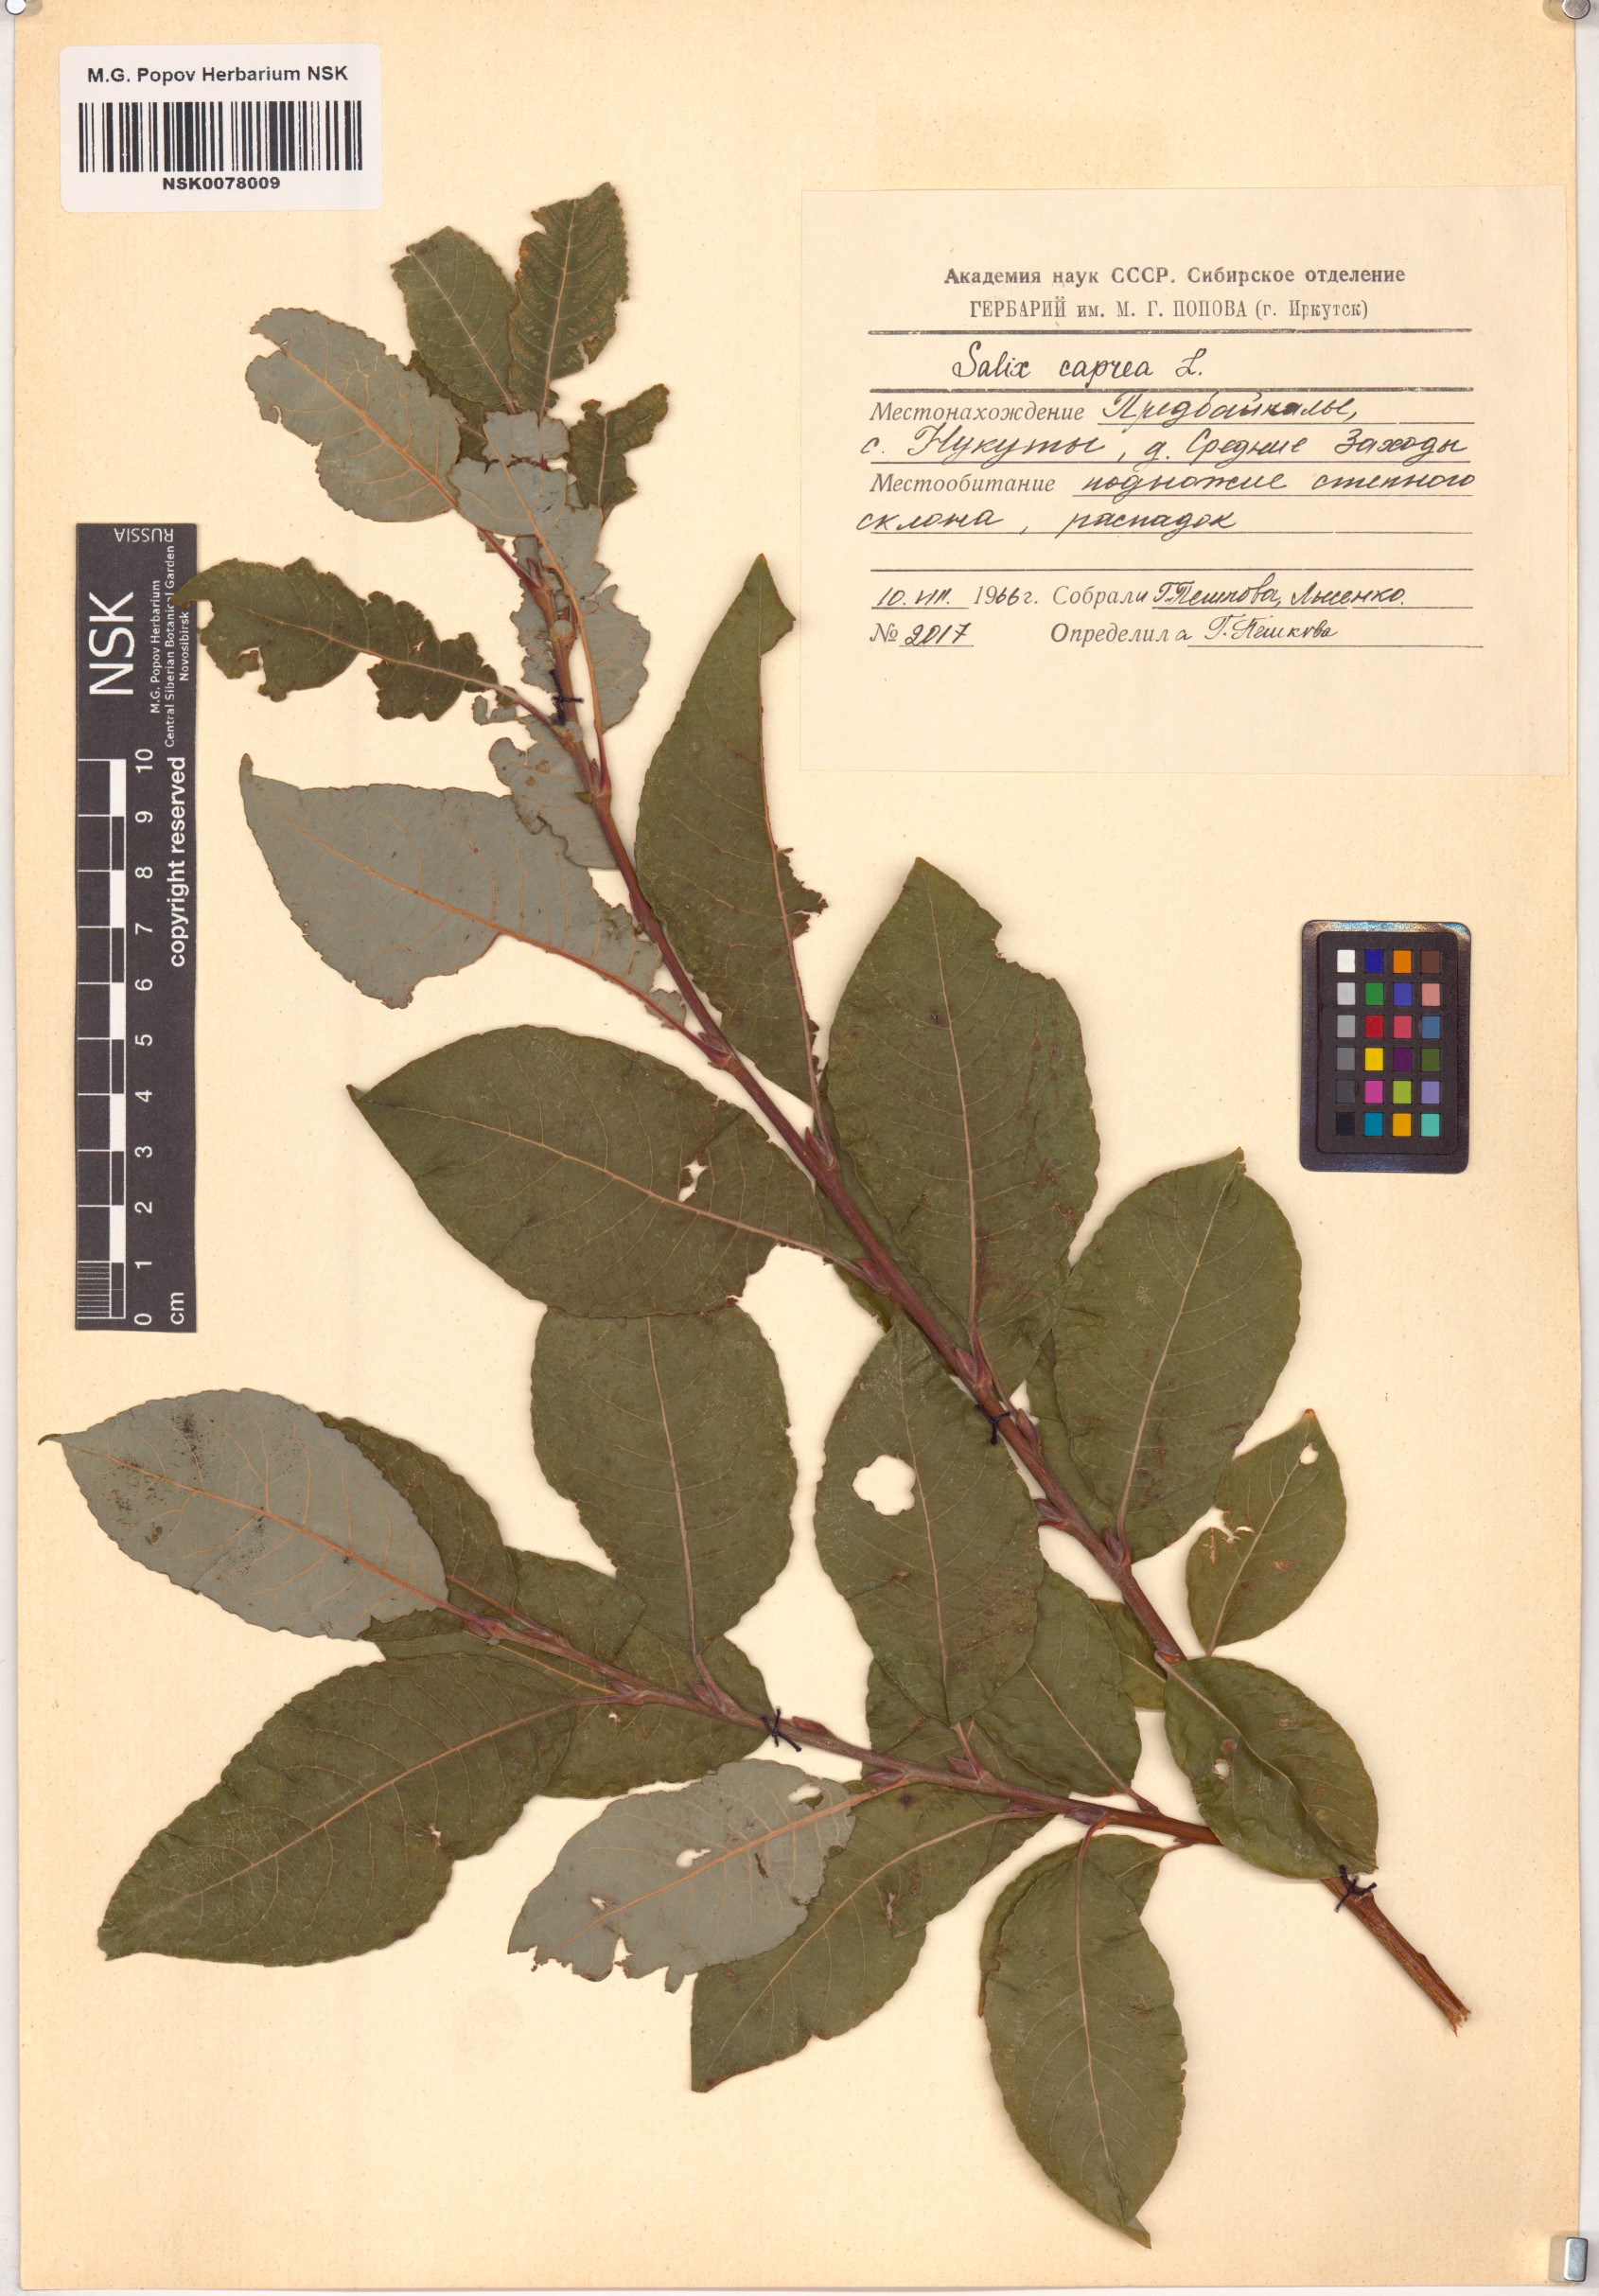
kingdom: Plantae
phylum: Tracheophyta
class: Magnoliopsida
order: Malpighiales
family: Salicaceae
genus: Salix
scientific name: Salix caprea
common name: Goat willow
